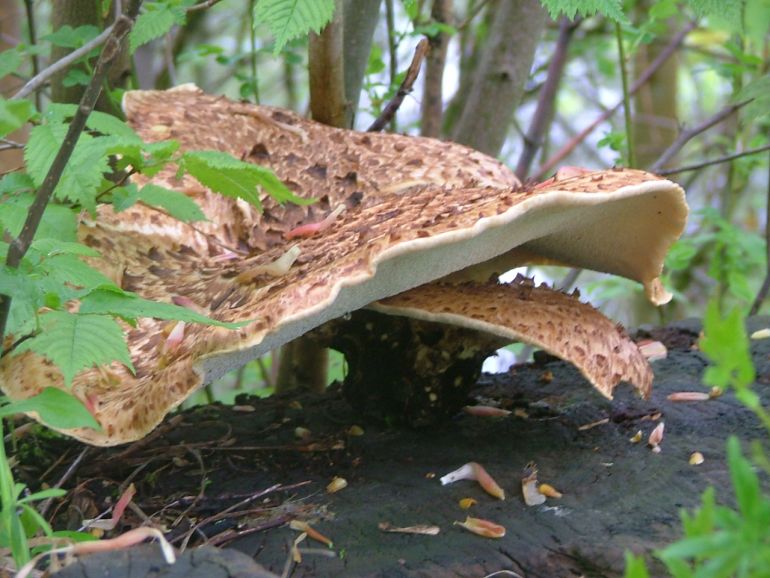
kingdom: Fungi
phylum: Basidiomycota
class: Agaricomycetes
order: Polyporales
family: Polyporaceae
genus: Cerioporus
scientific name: Cerioporus squamosus
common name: skællet stilkporesvamp
